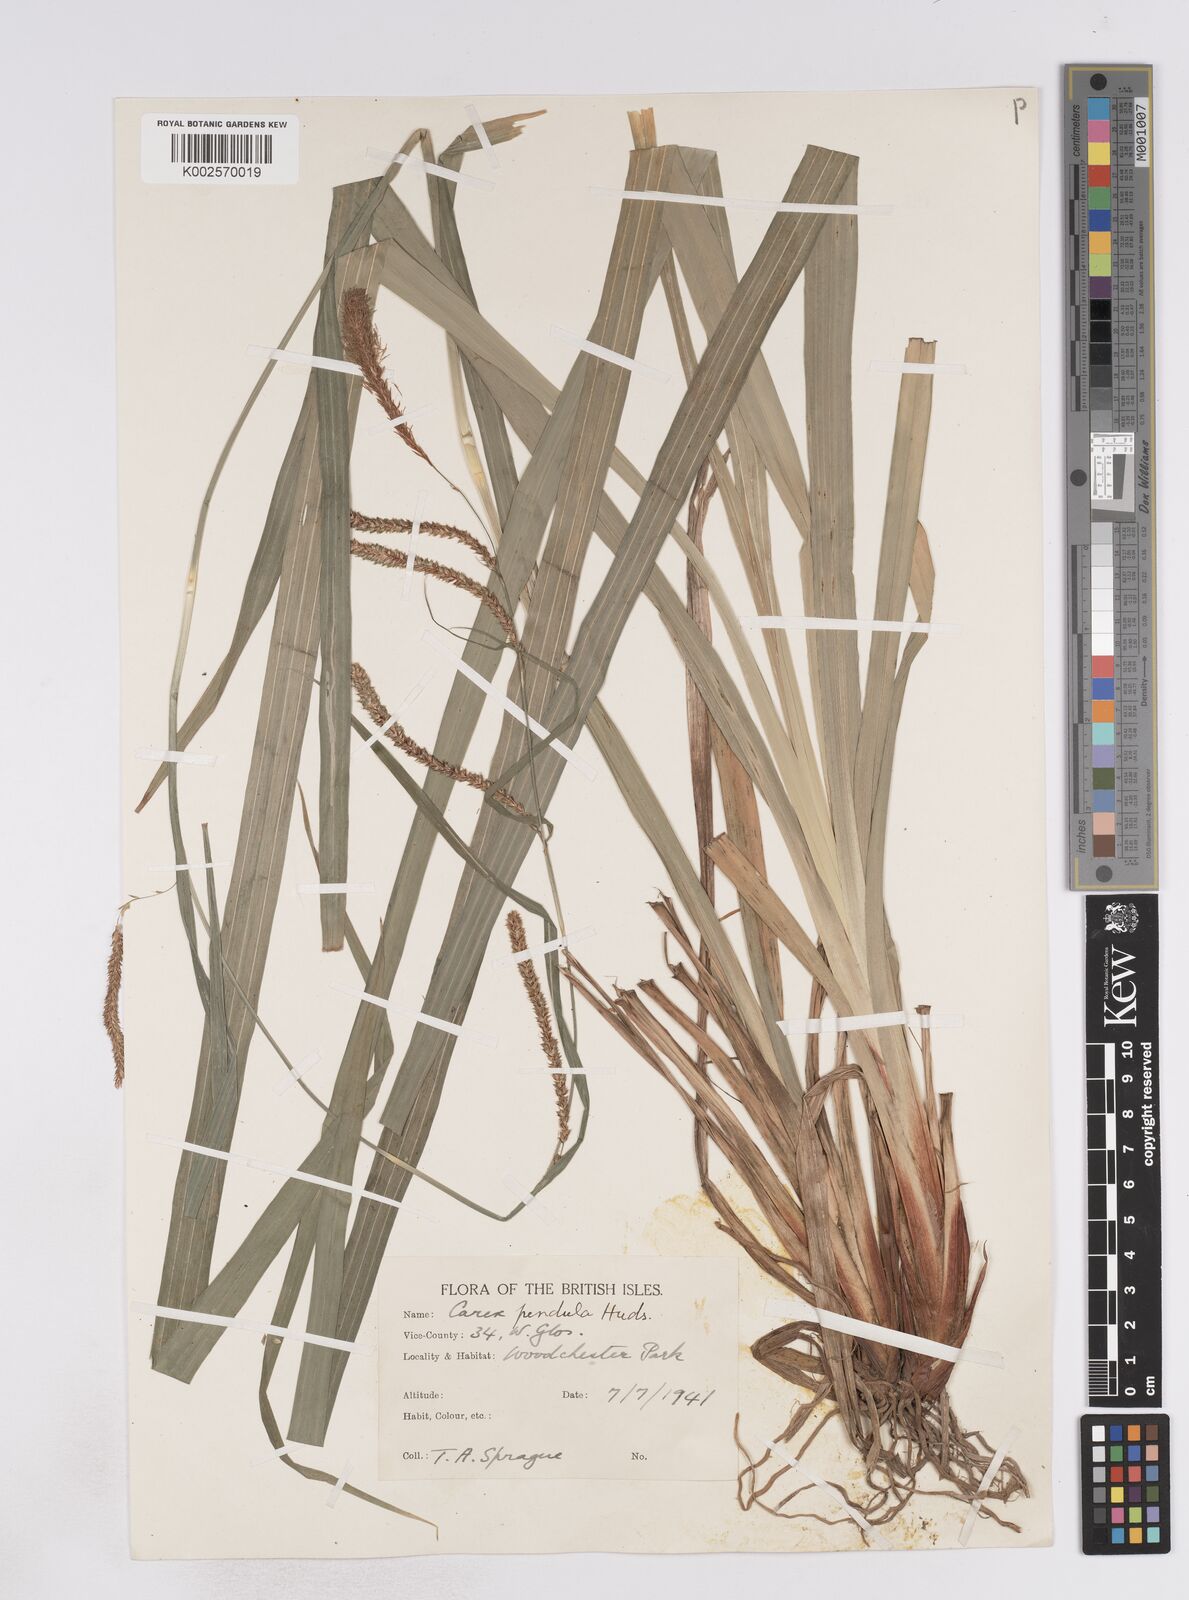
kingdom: Plantae
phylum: Tracheophyta
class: Liliopsida
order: Poales
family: Cyperaceae
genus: Carex
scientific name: Carex pendula
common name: Pendulous sedge
